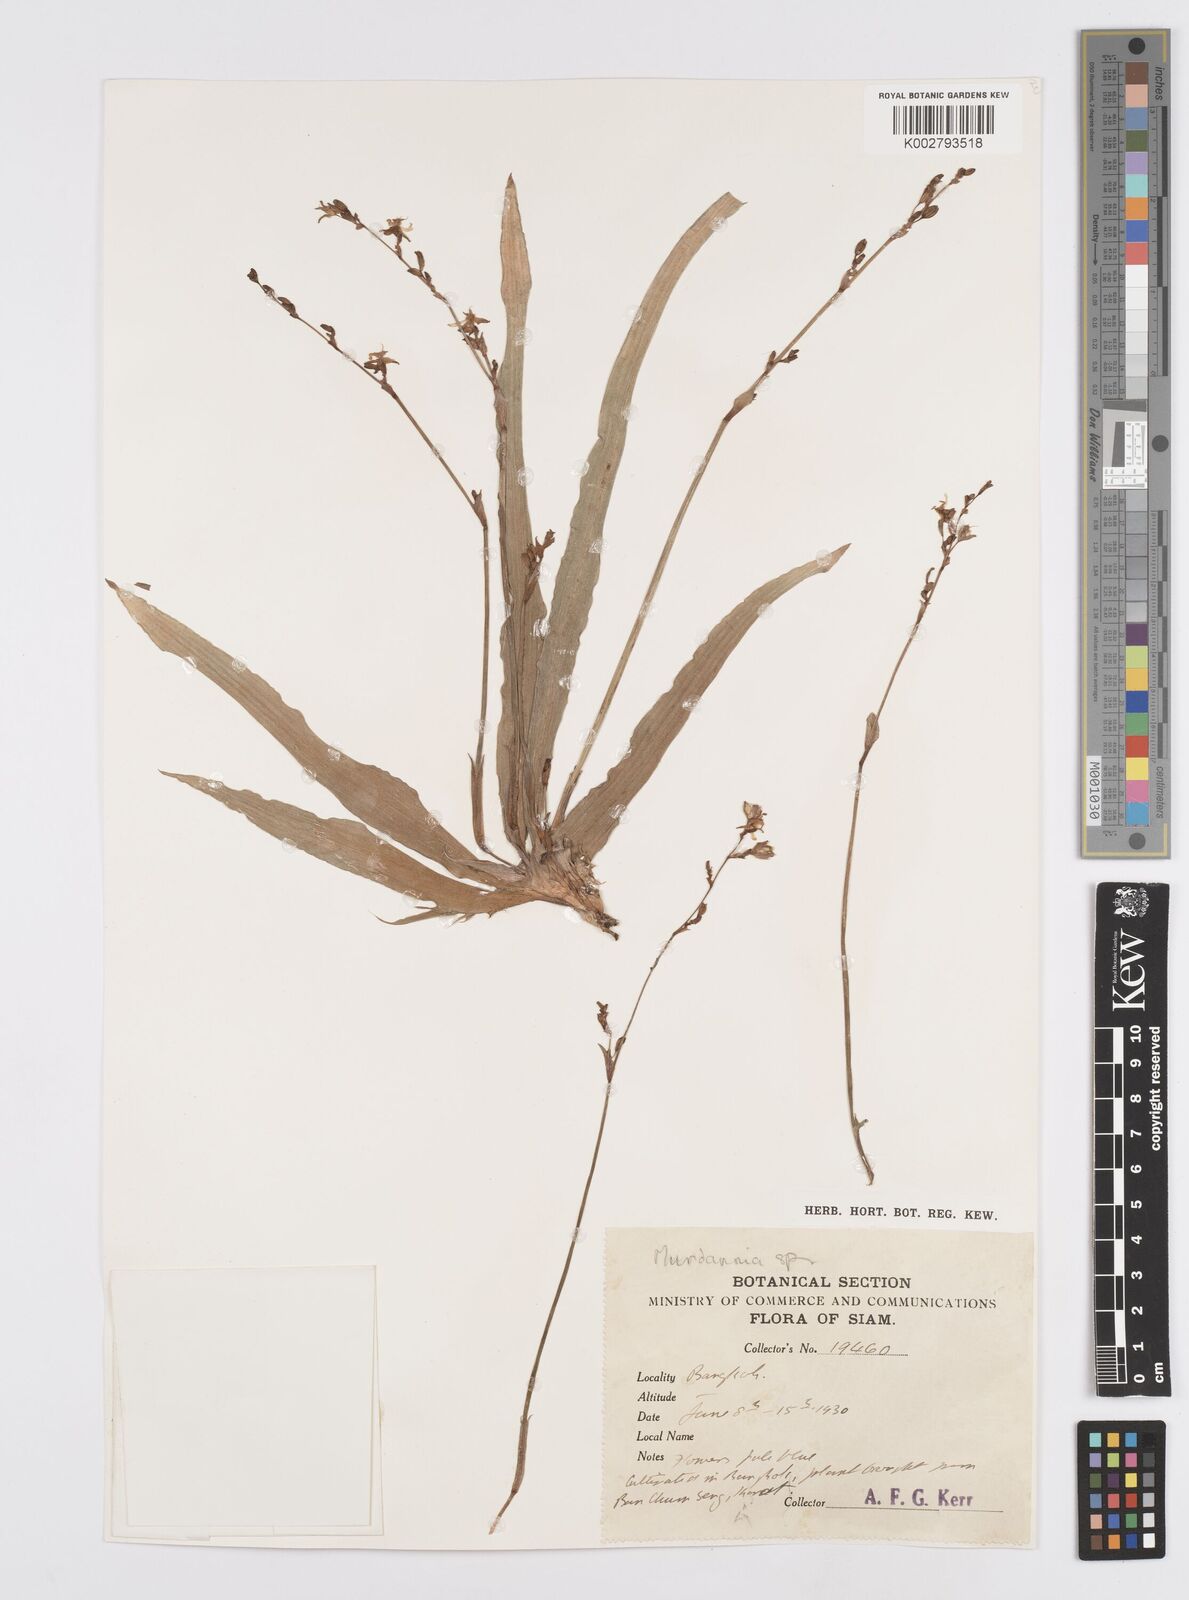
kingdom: Plantae
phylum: Tracheophyta
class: Liliopsida
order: Commelinales
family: Commelinaceae
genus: Murdannia
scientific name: Murdannia
